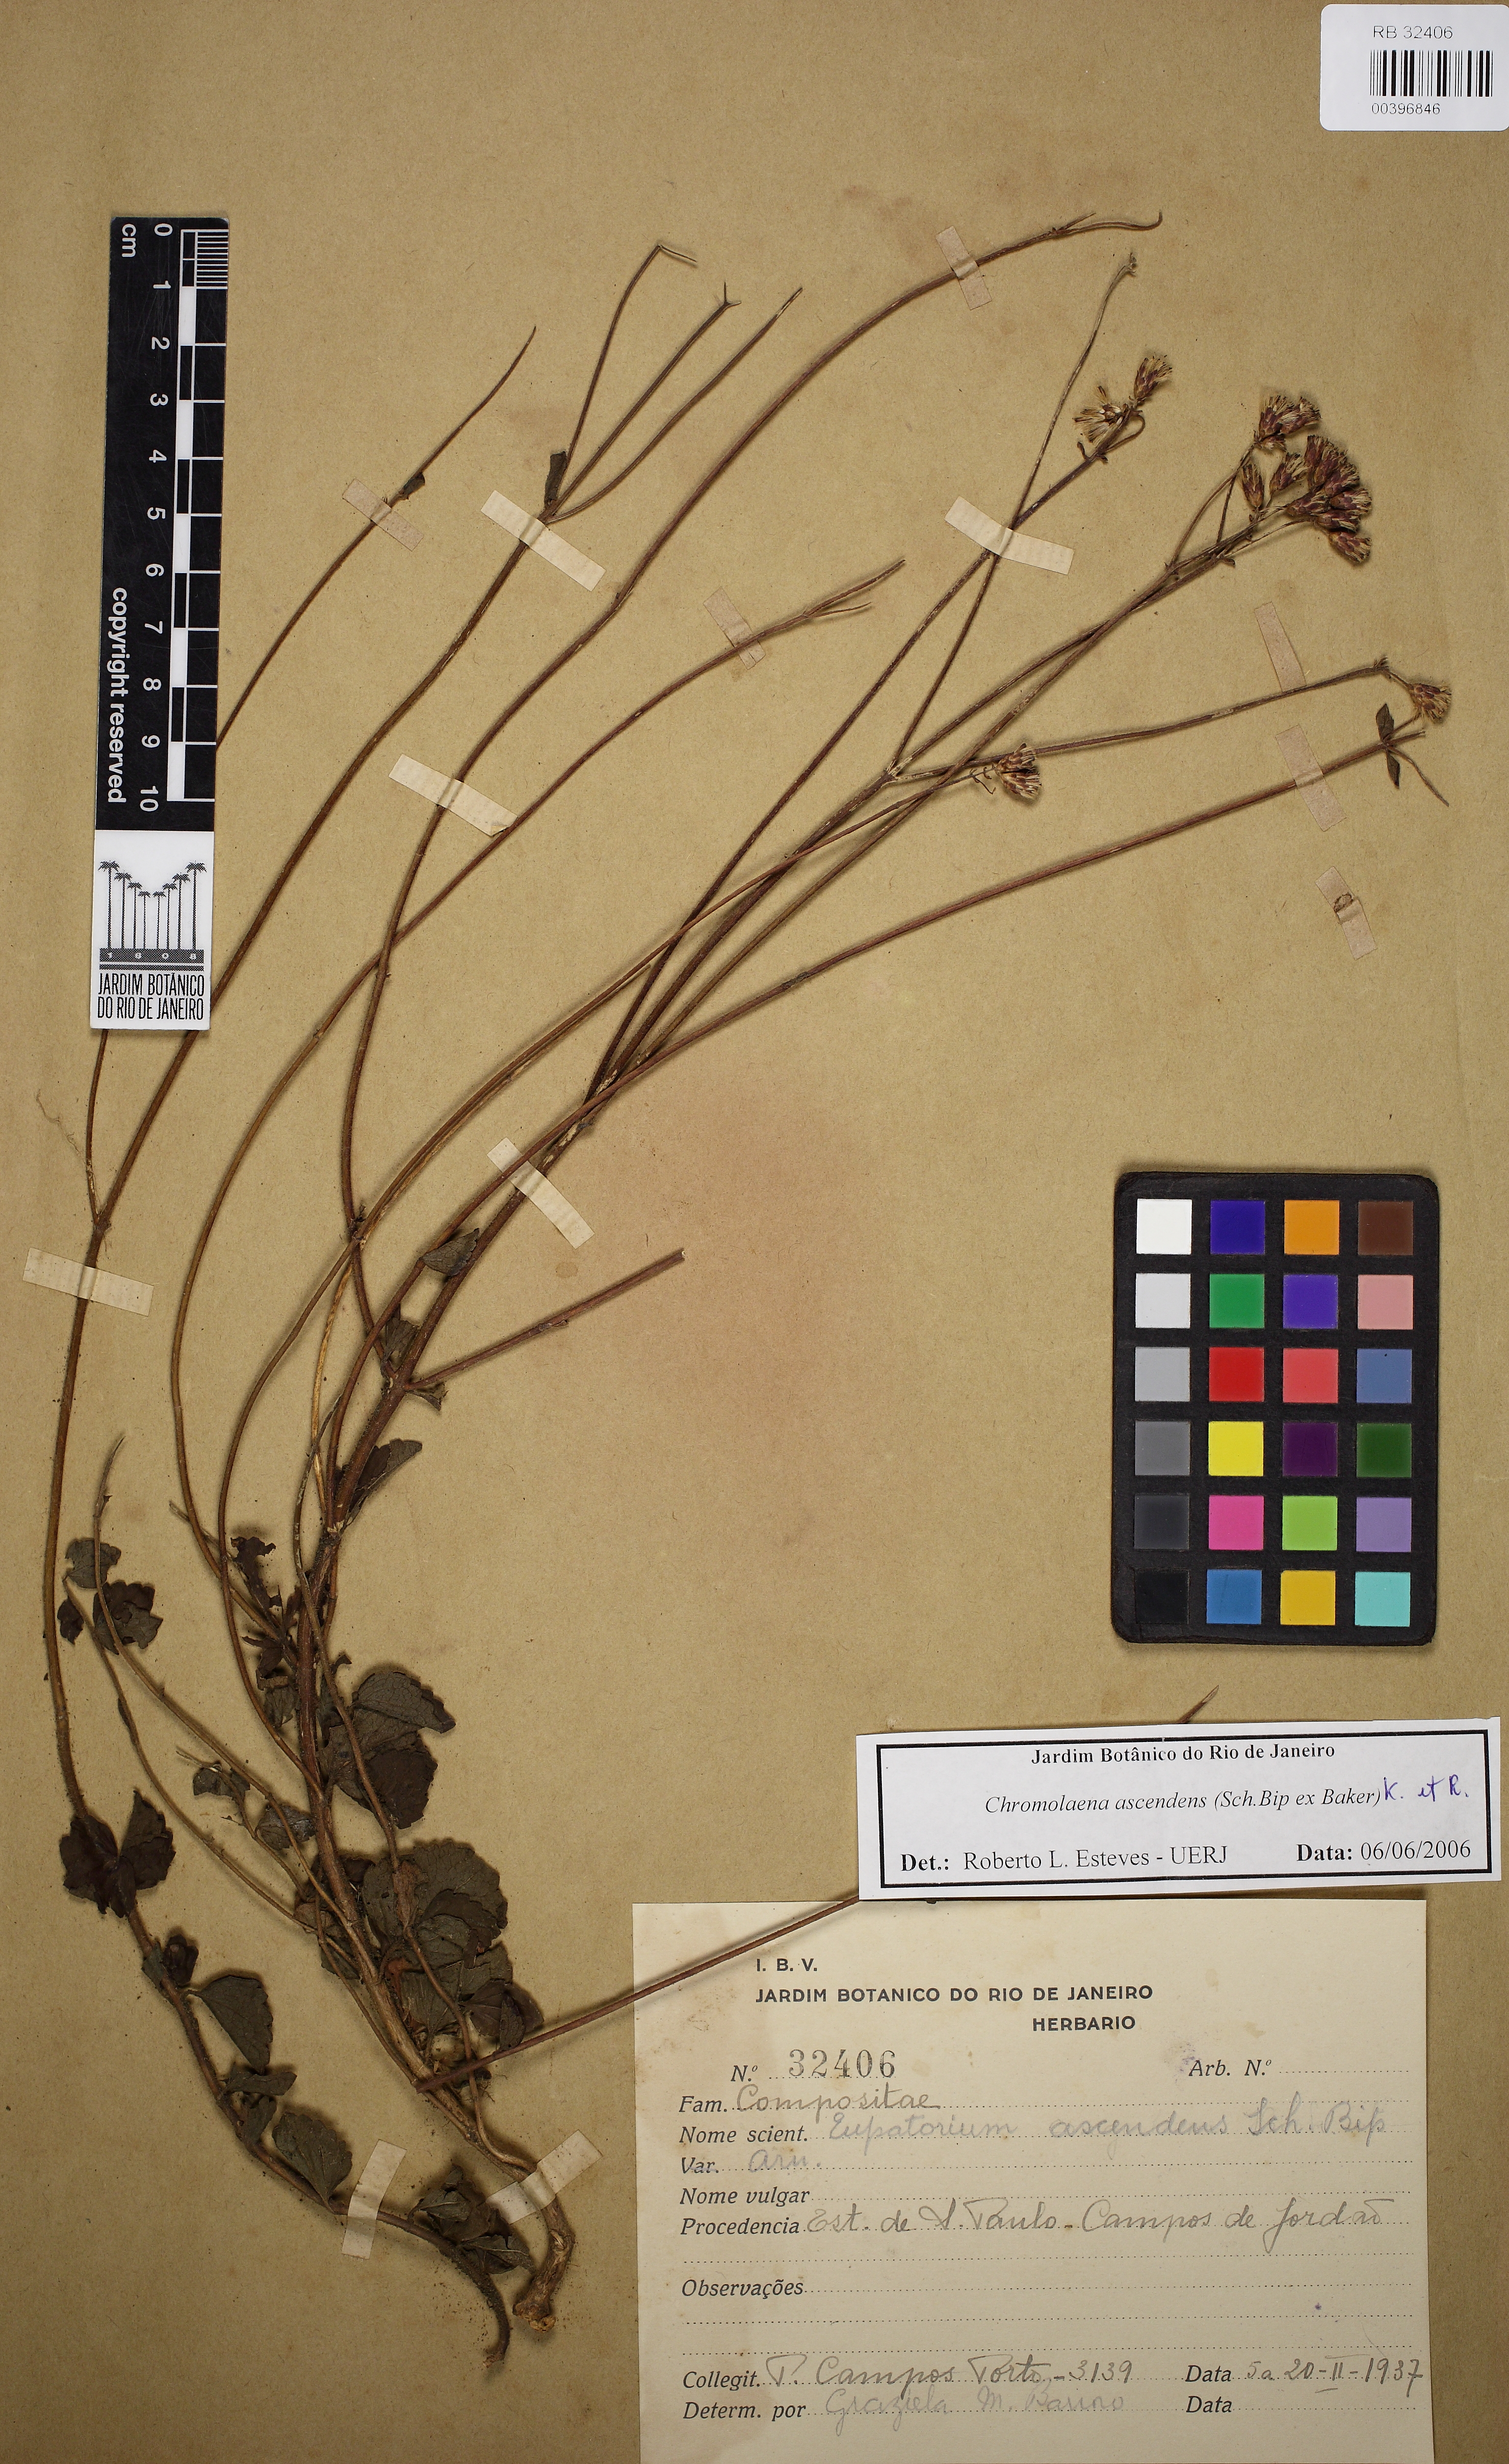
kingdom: Plantae
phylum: Tracheophyta
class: Magnoliopsida
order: Asterales
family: Asteraceae
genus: Chromolaena
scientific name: Chromolaena latisquamulosa
